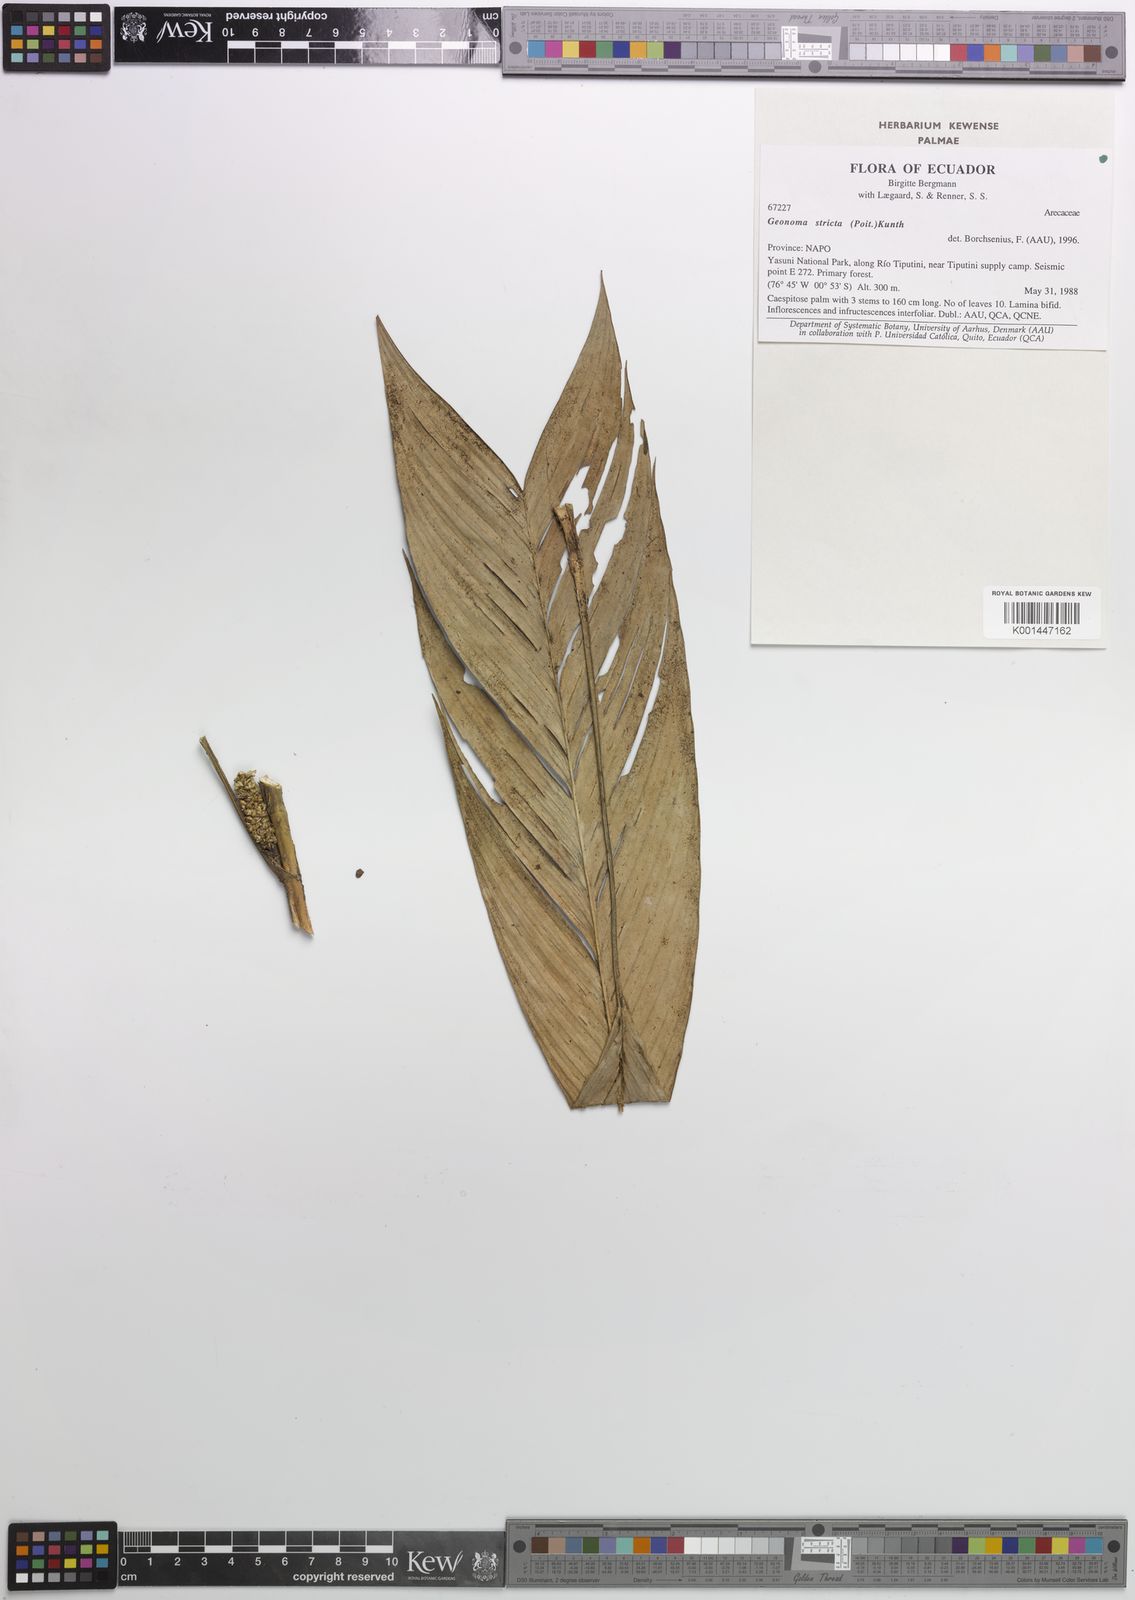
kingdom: Plantae
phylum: Tracheophyta
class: Liliopsida
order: Arecales
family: Arecaceae
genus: Geonoma
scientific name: Geonoma stricta
